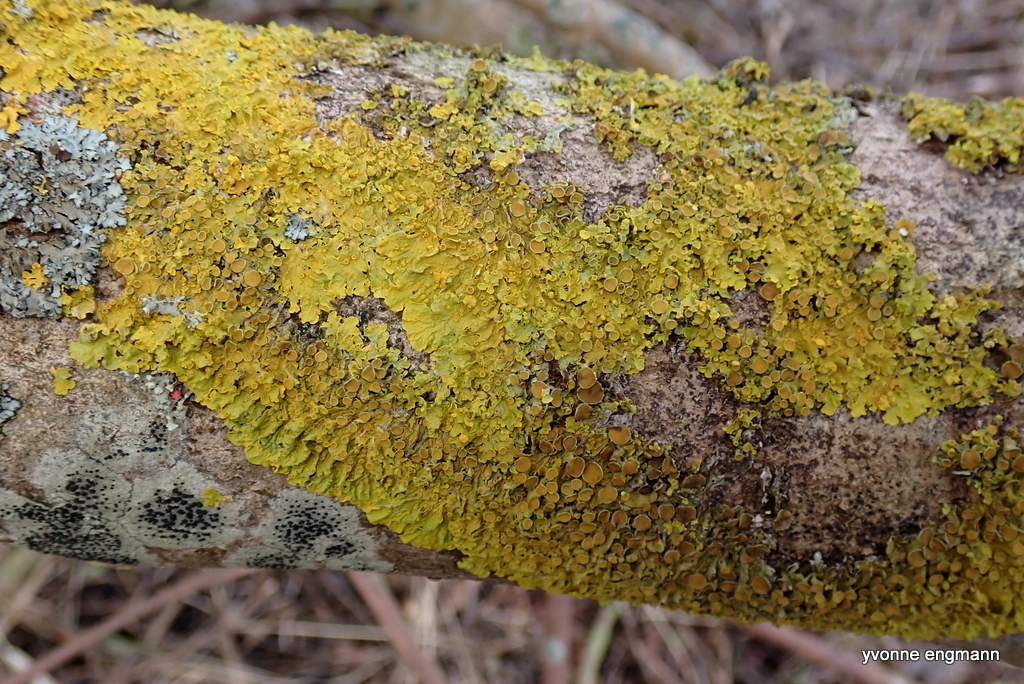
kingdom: Fungi
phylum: Ascomycota
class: Lecanoromycetes
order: Teloschistales
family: Teloschistaceae
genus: Xanthoria
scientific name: Xanthoria parietina
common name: almindelig væggelav
